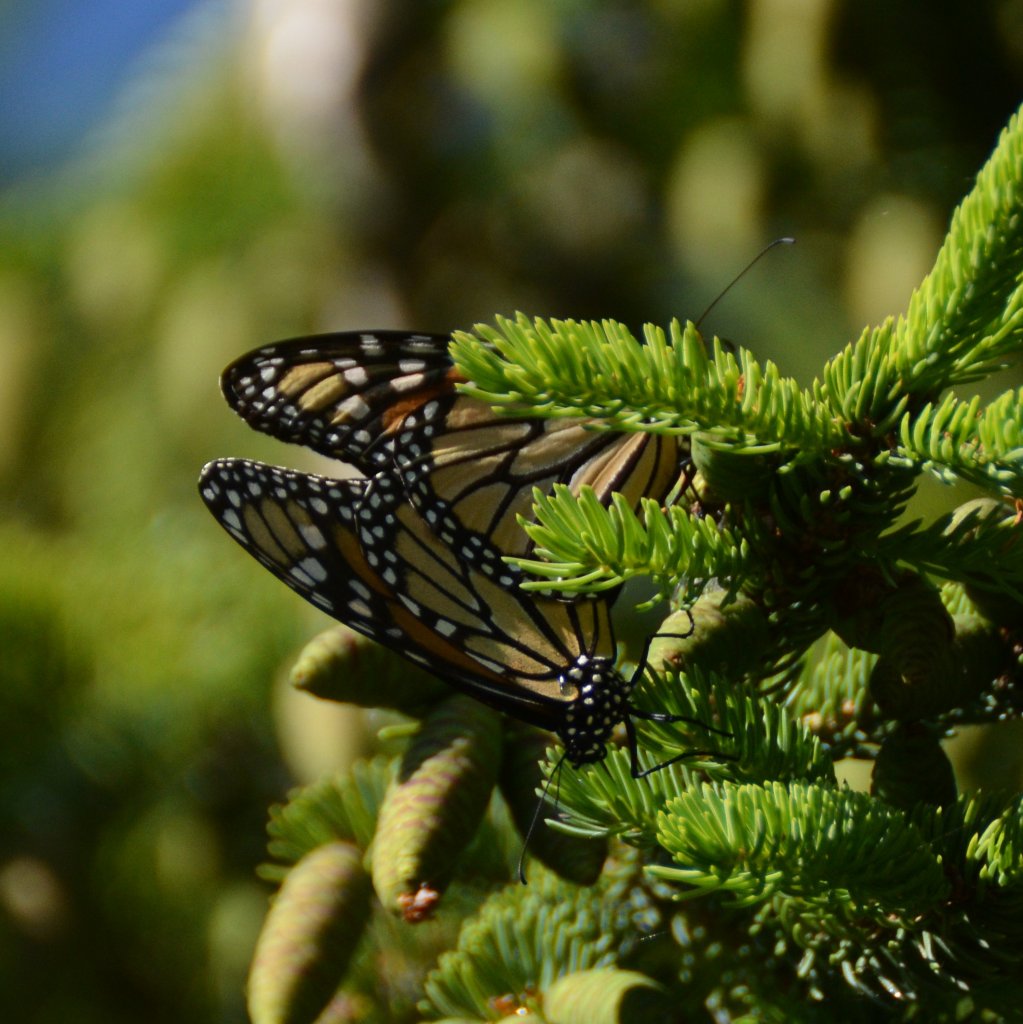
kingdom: Animalia
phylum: Arthropoda
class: Insecta
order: Lepidoptera
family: Nymphalidae
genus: Danaus
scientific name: Danaus plexippus
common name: Monarch
